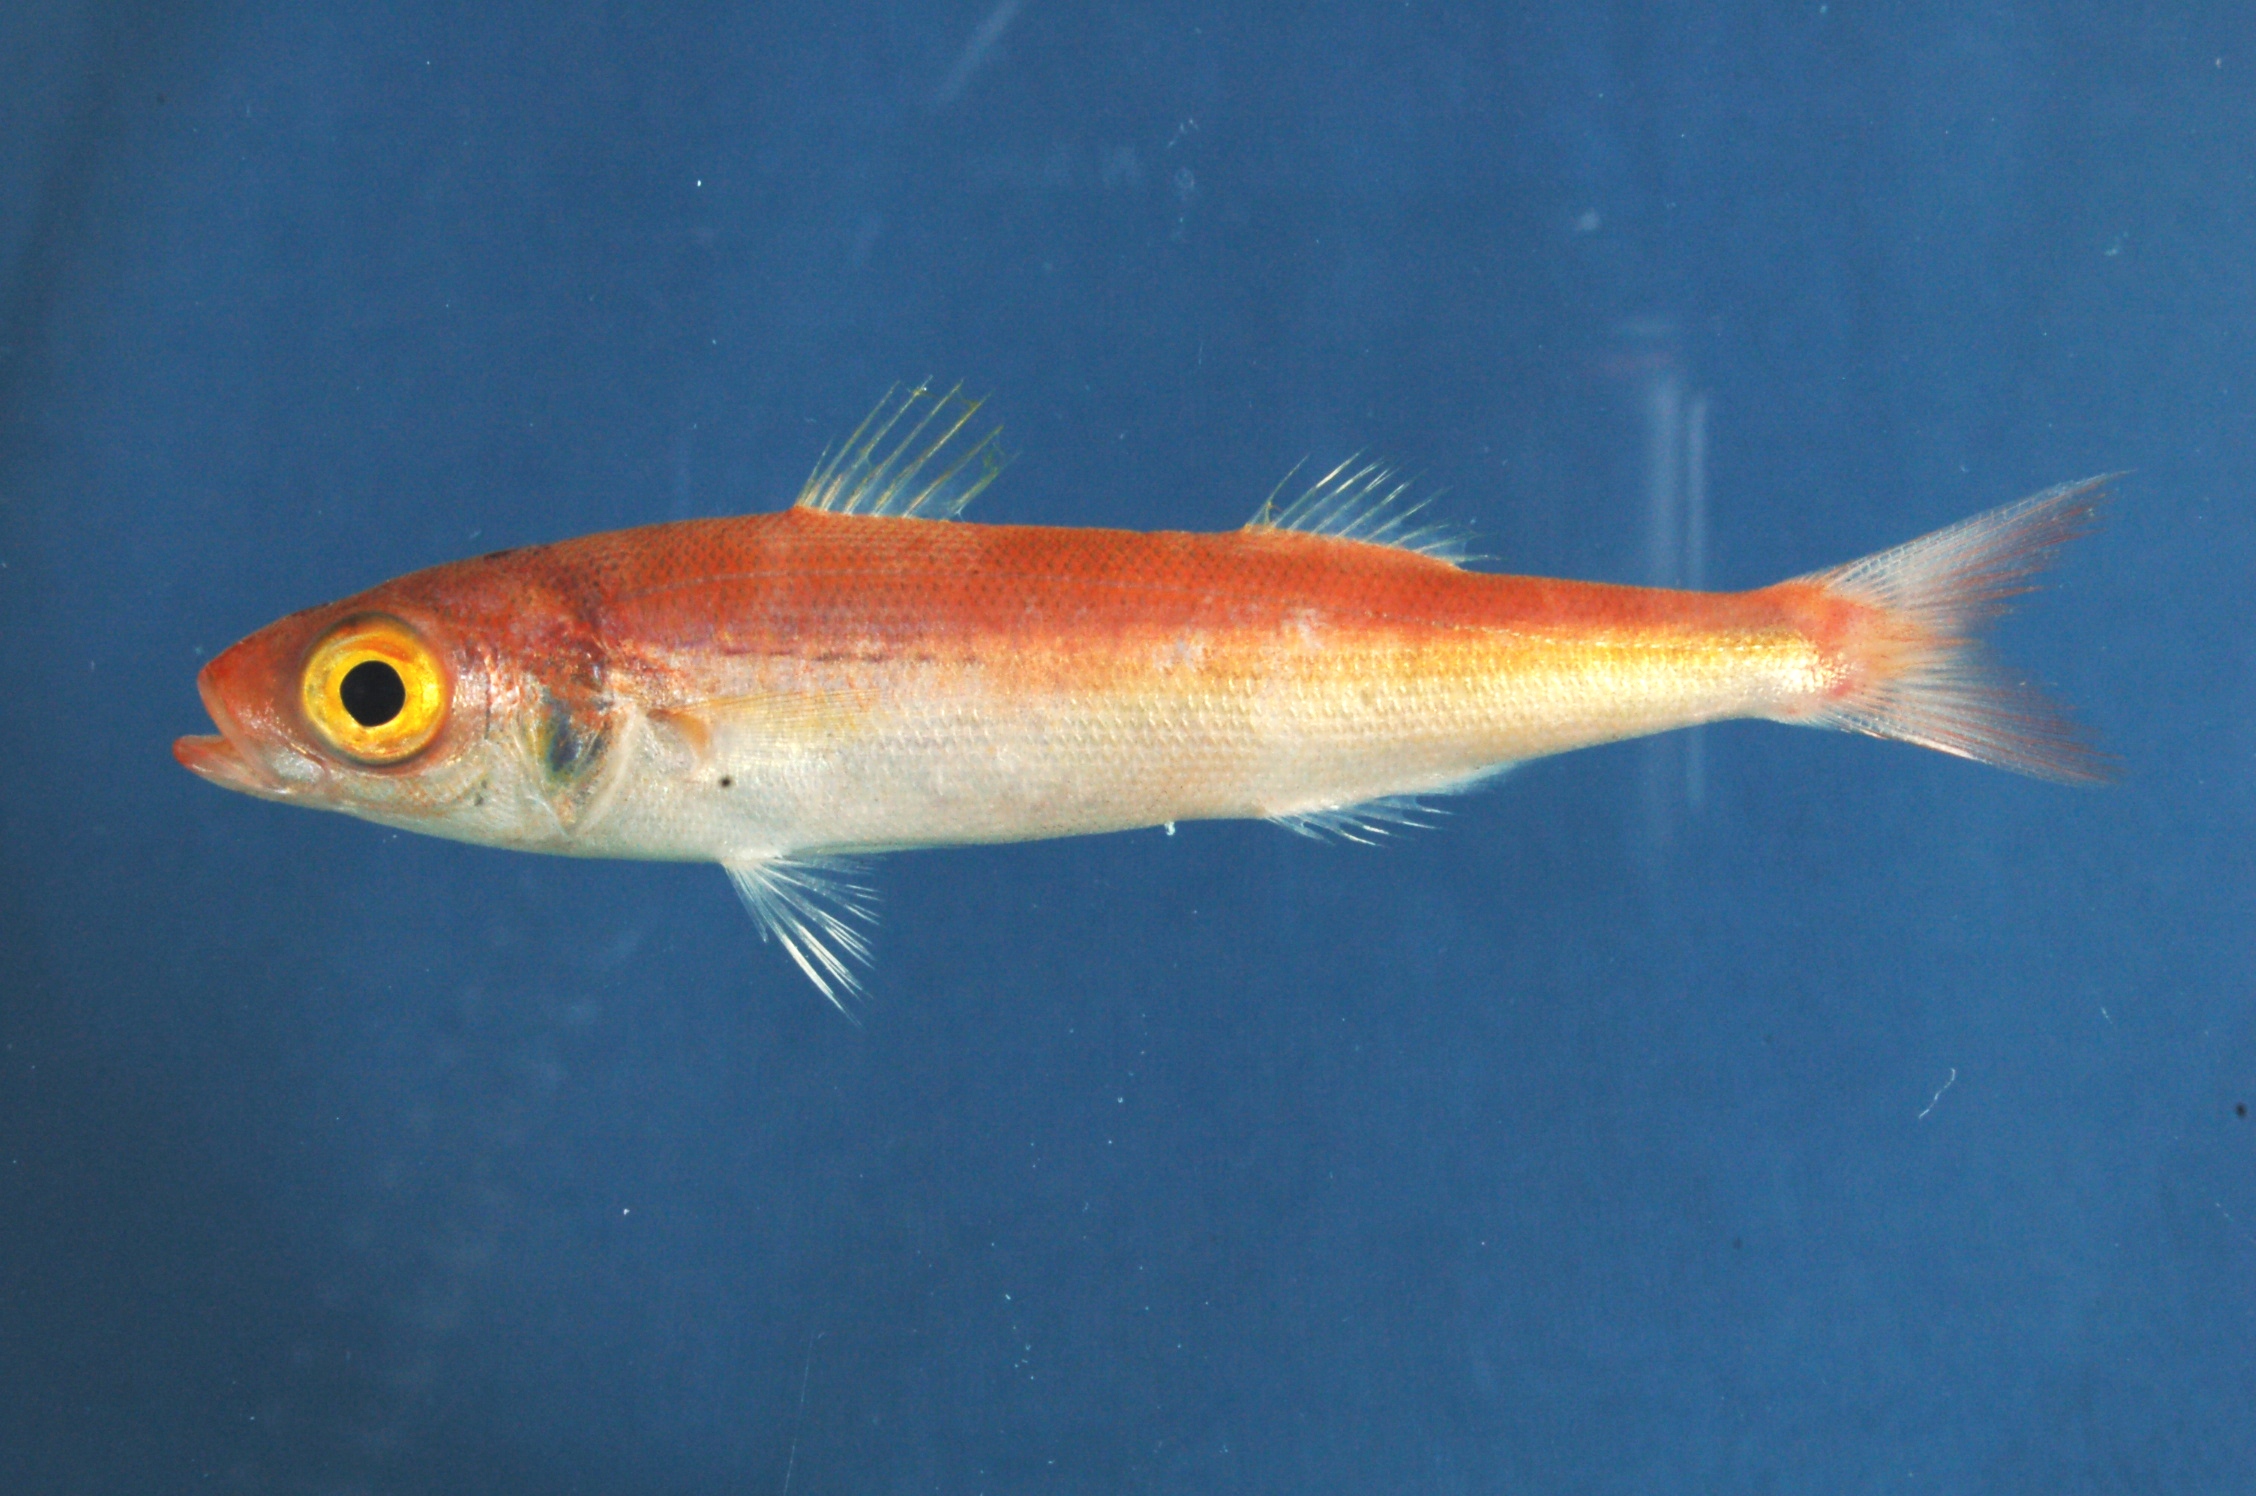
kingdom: Animalia
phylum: Chordata
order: Perciformes
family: Emmelichthyidae
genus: Emmelichthys
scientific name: Emmelichthys ruber
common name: Red rover
